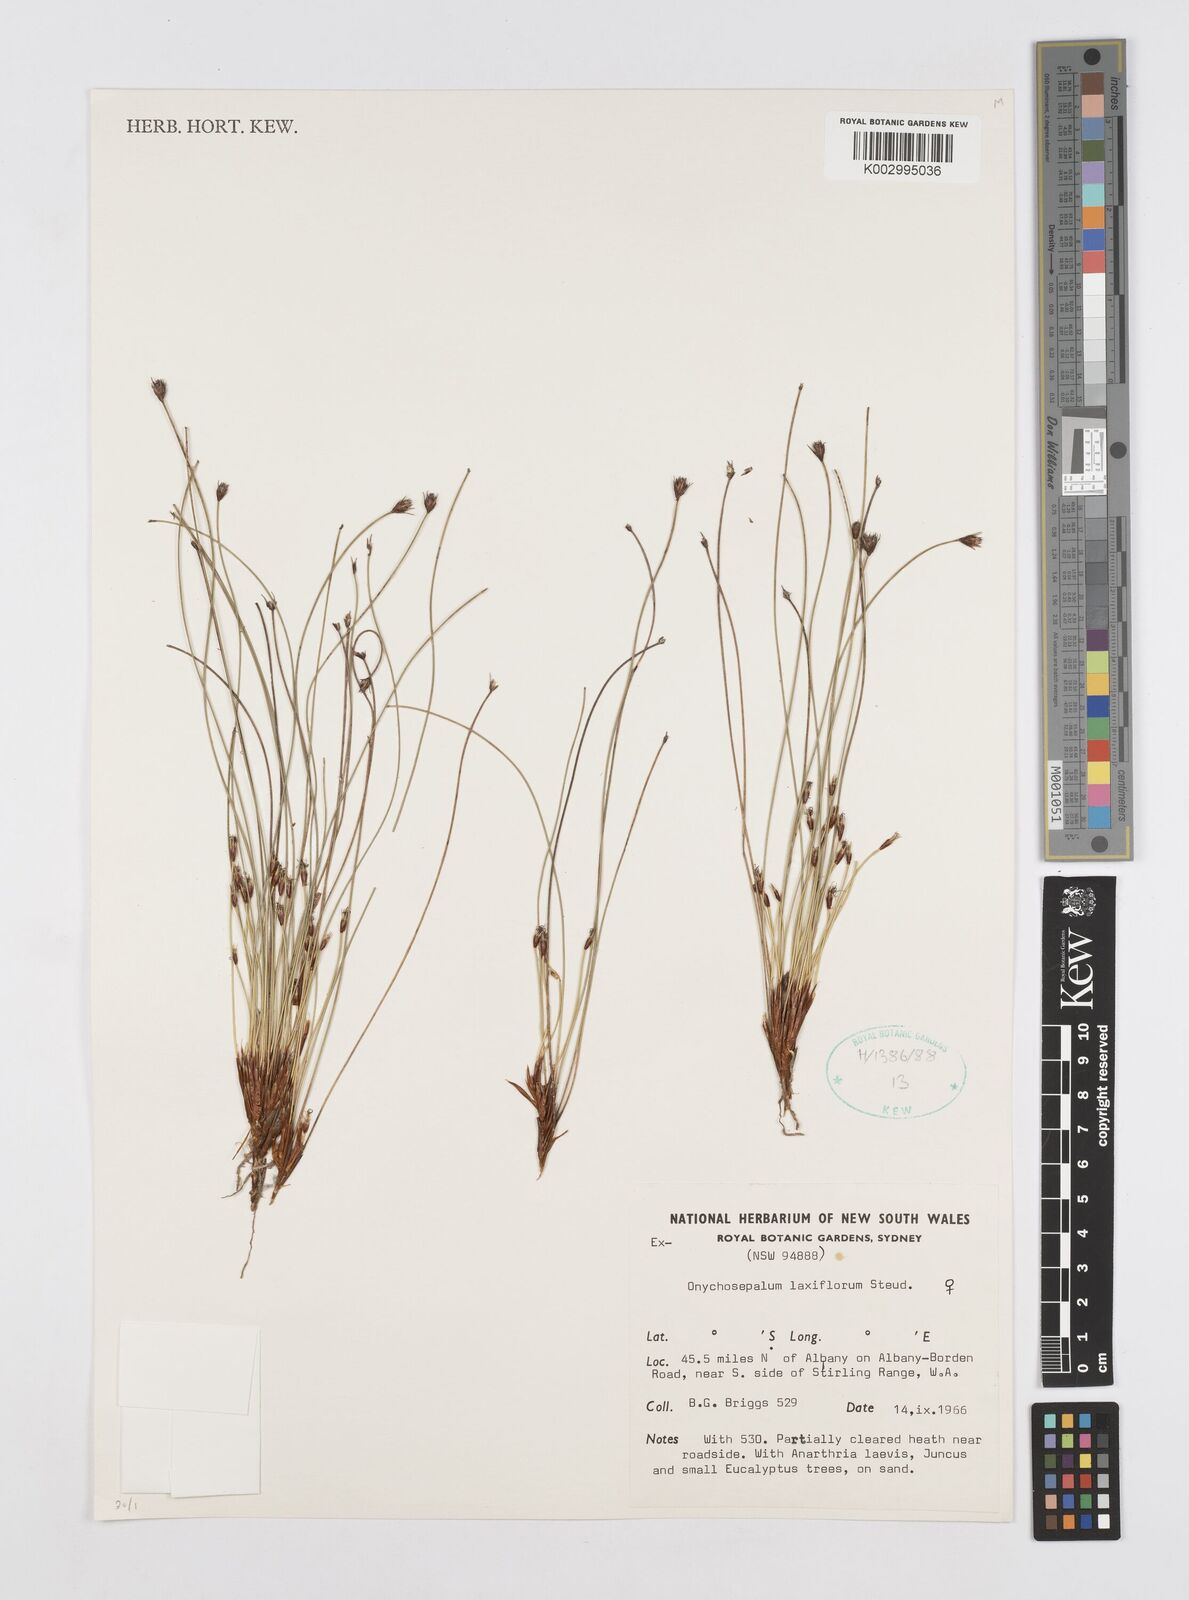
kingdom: Plantae
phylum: Tracheophyta
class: Liliopsida
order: Poales
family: Restionaceae
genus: Desmocladus
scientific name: Desmocladus laxiflorus
